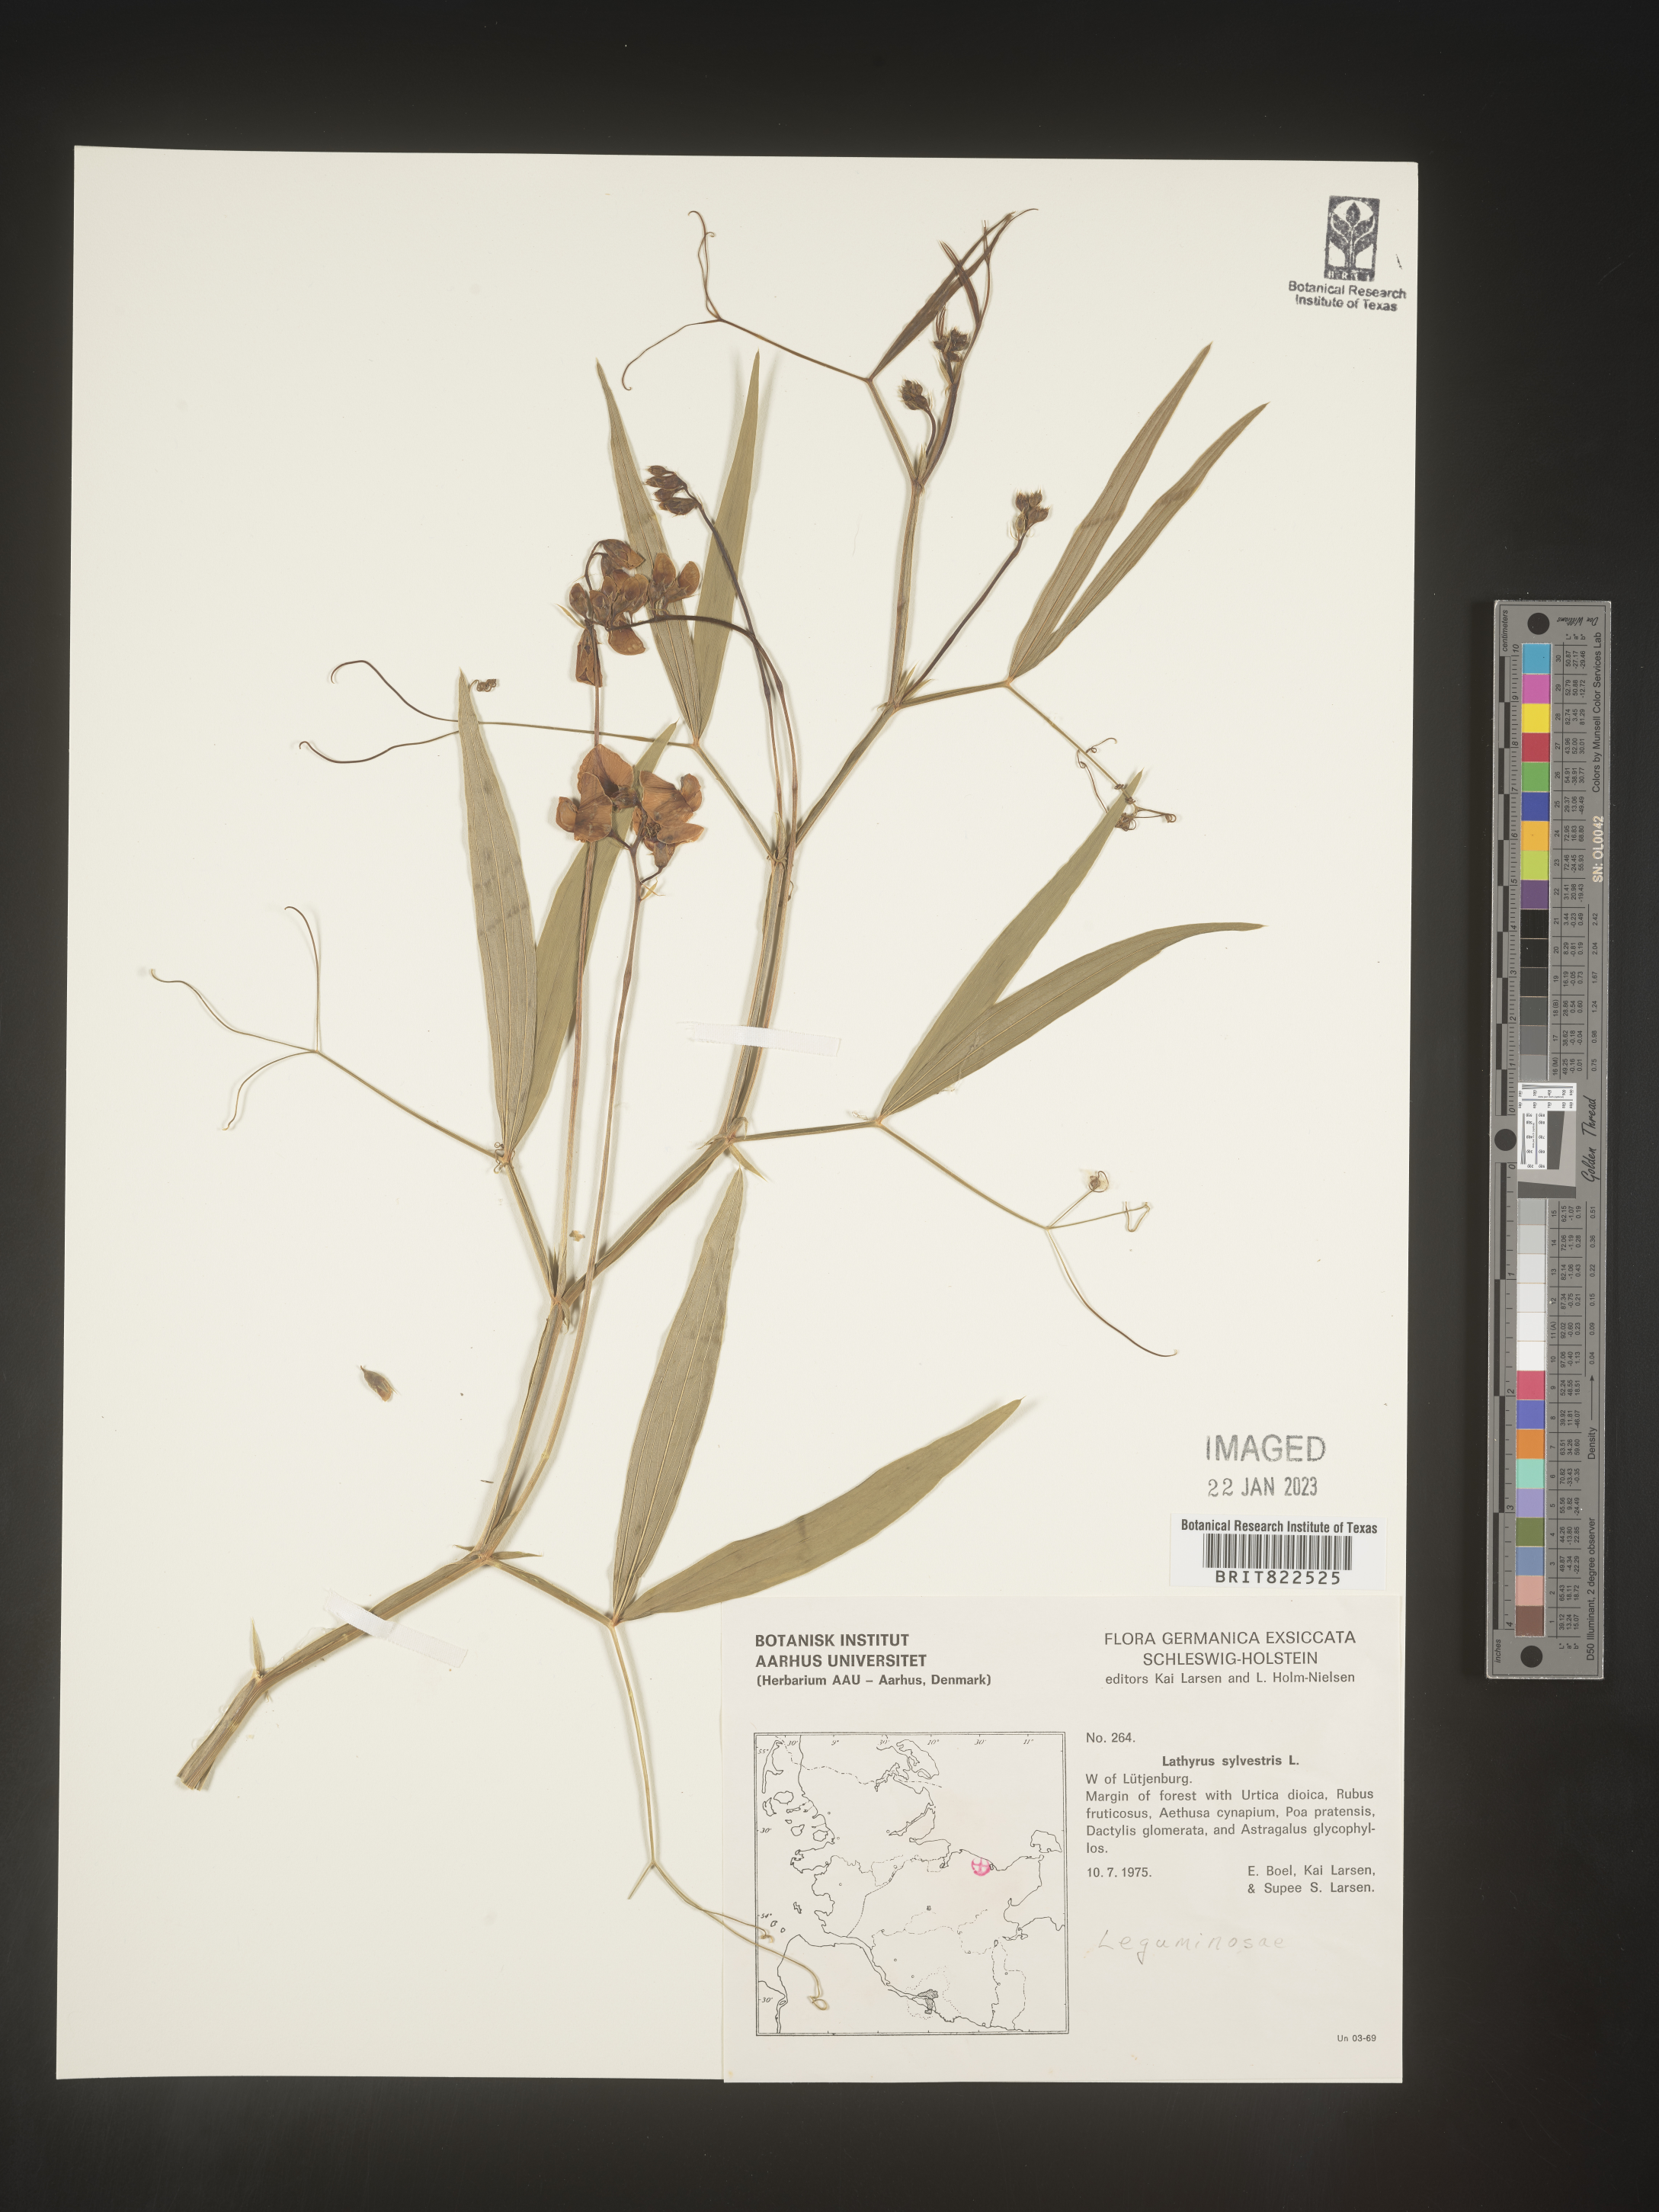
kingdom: Plantae
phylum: Tracheophyta
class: Magnoliopsida
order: Fabales
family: Fabaceae
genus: Lathyrus
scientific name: Lathyrus
